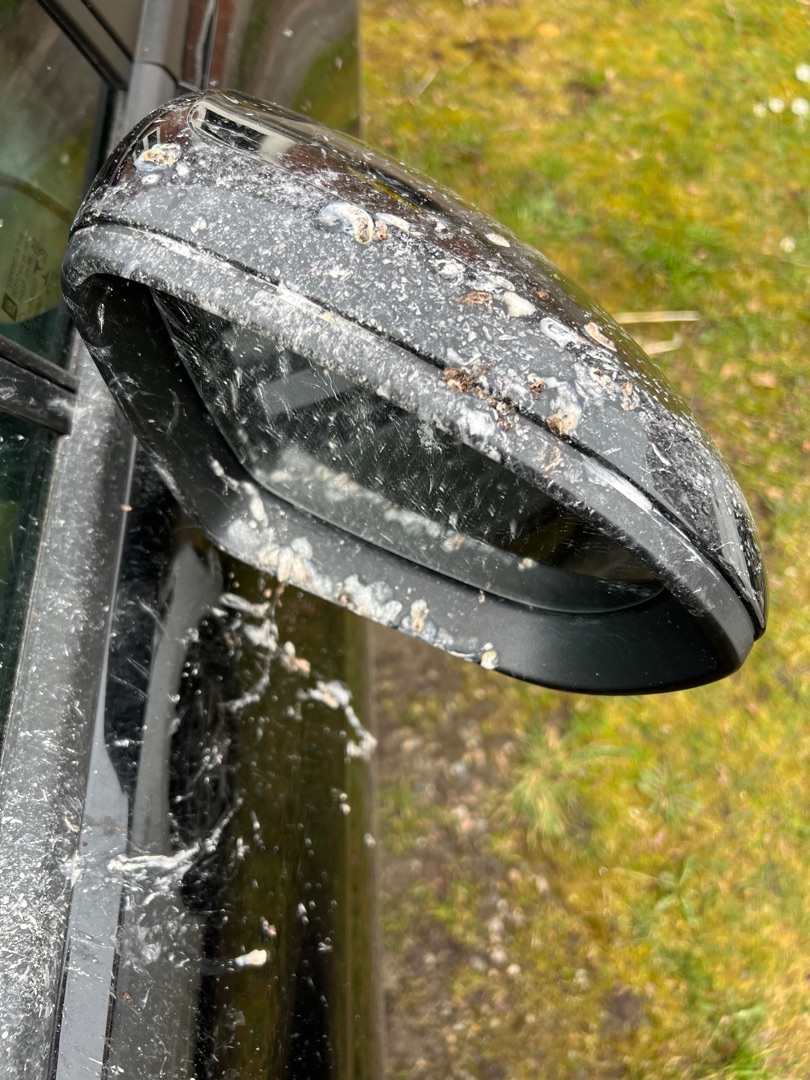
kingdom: Animalia
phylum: Chordata
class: Aves
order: Passeriformes
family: Motacillidae
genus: Motacilla
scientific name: Motacilla alba
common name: Hvid vipstjert
